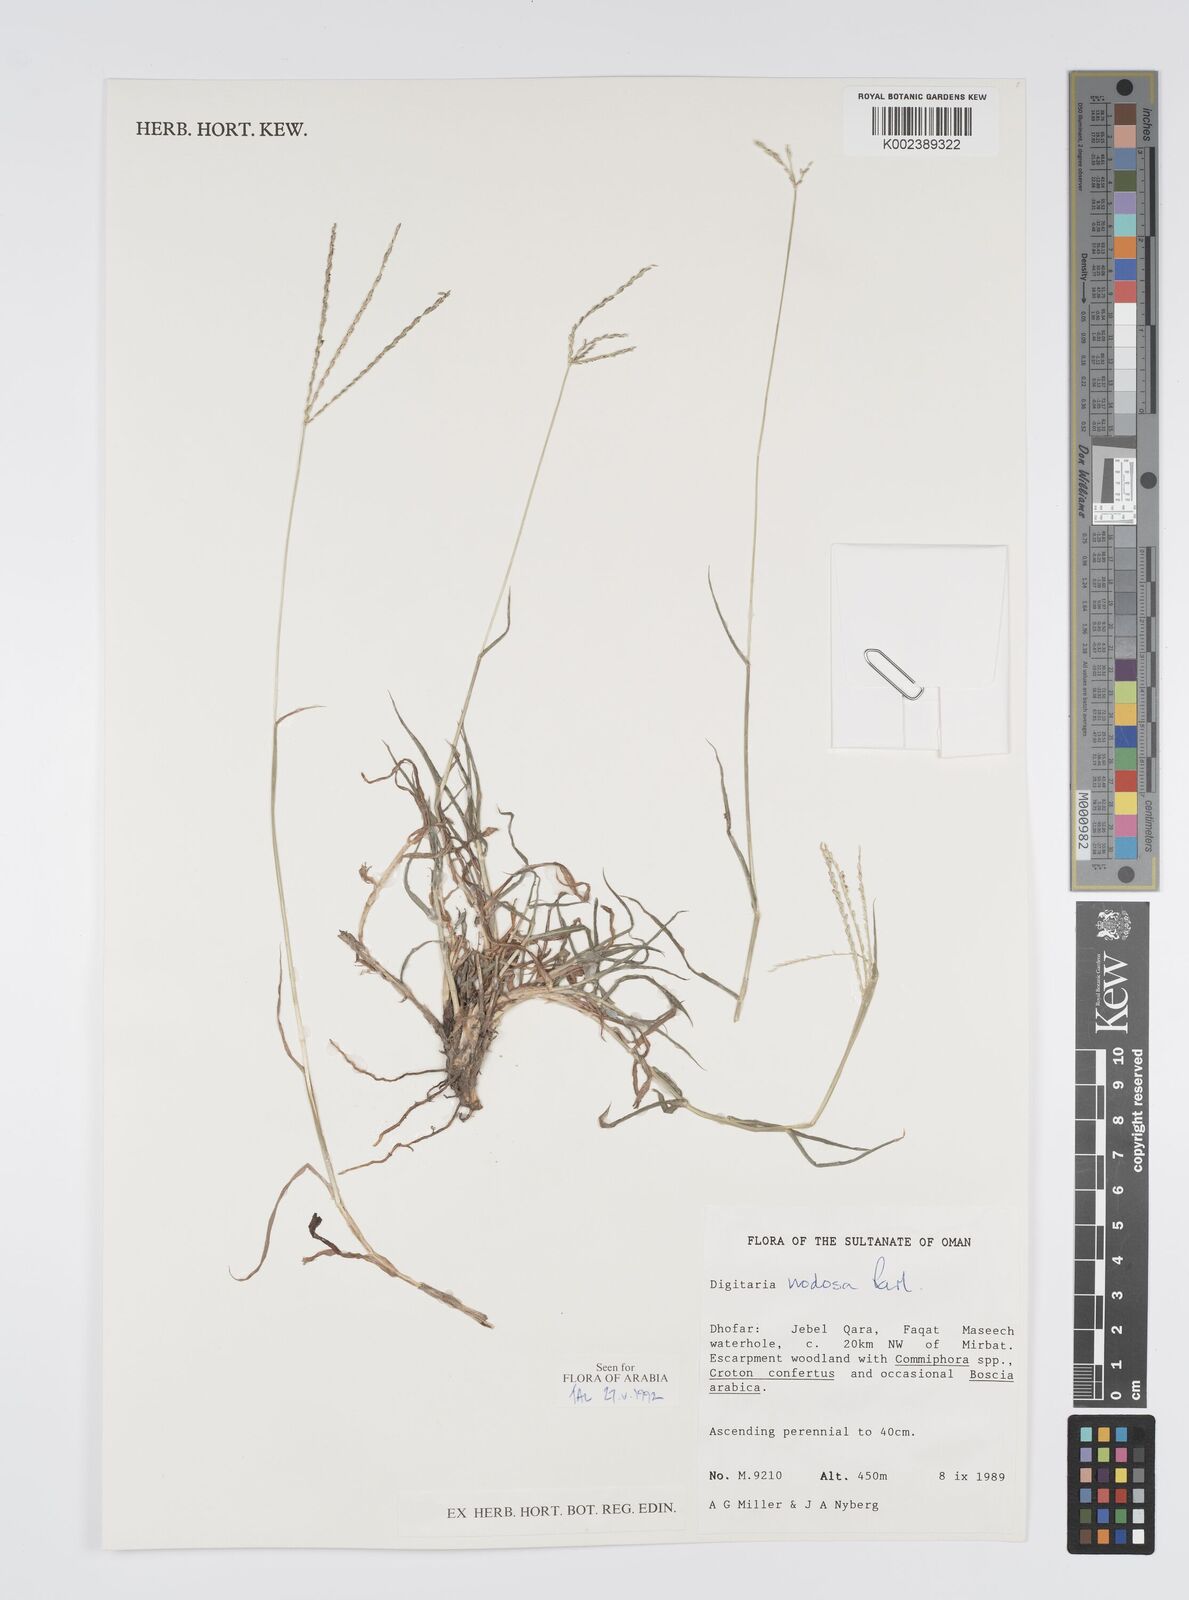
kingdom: Plantae
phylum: Tracheophyta
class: Liliopsida
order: Poales
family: Poaceae
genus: Digitaria
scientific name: Digitaria nodosa
